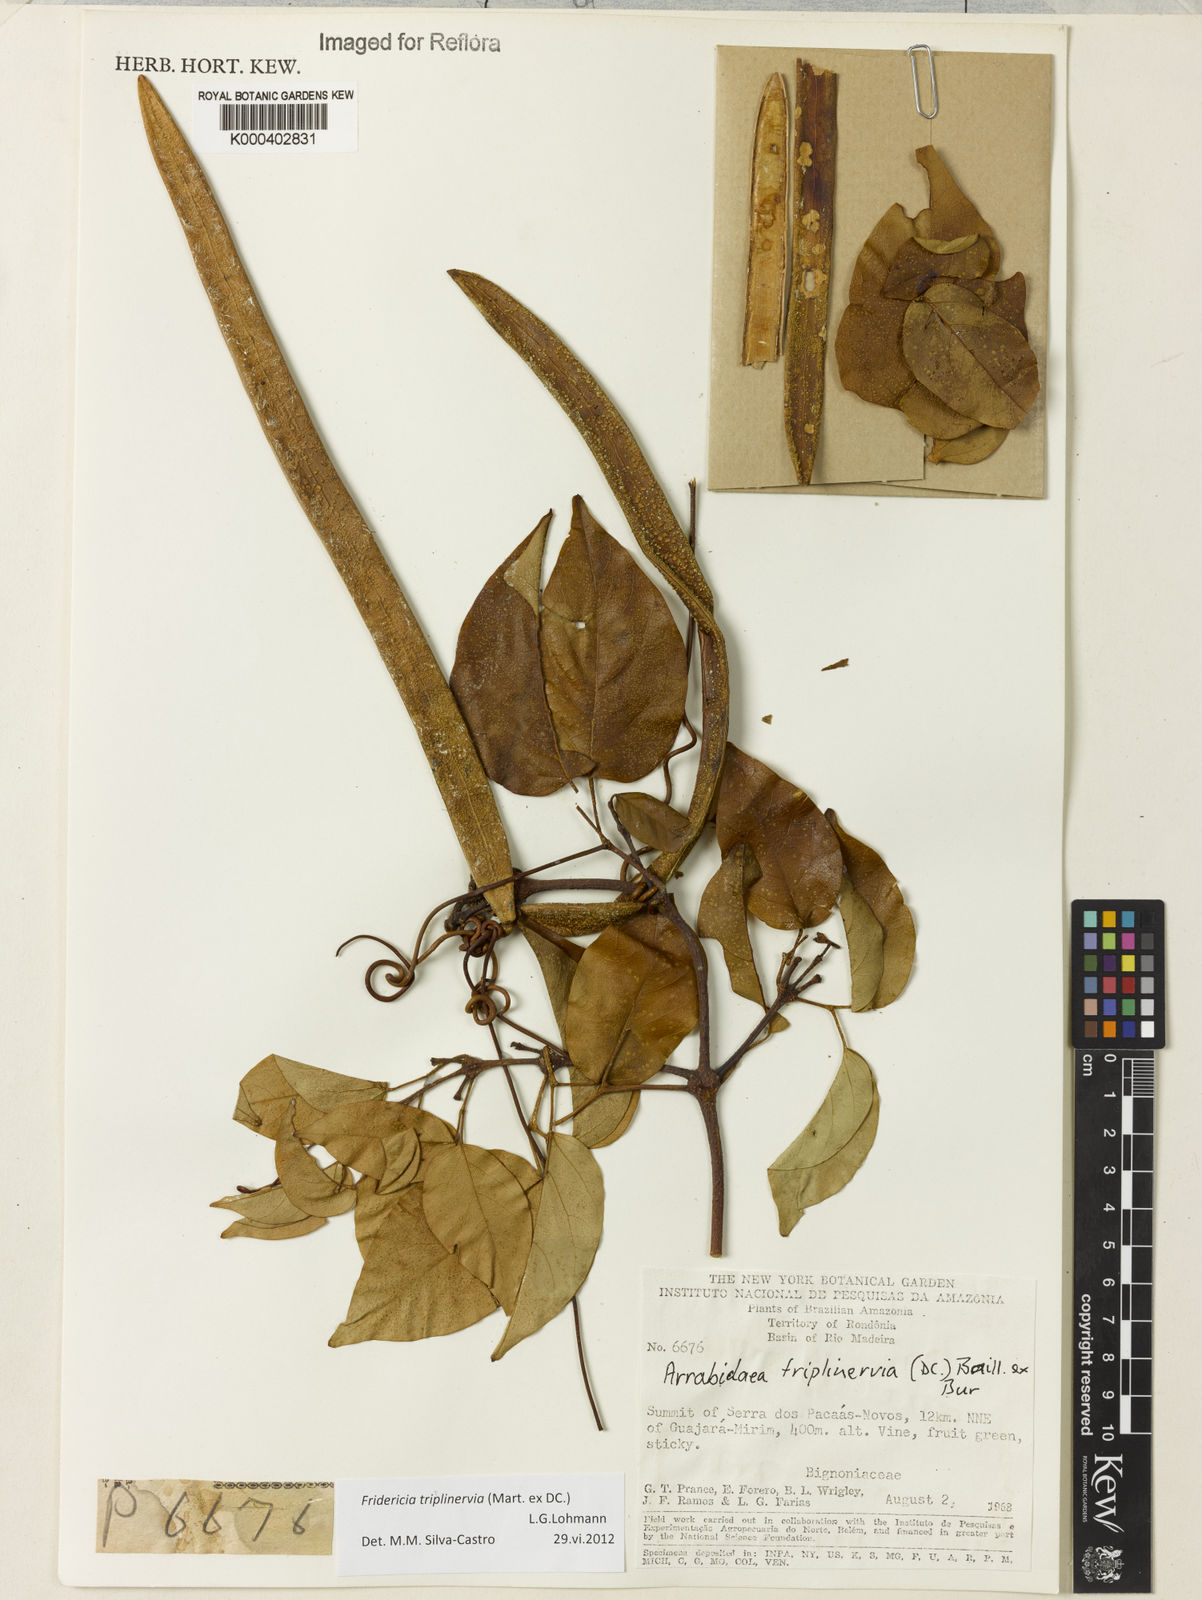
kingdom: Plantae
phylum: Tracheophyta
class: Magnoliopsida
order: Lamiales
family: Bignoniaceae
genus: Fridericia
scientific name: Fridericia triplinervia
